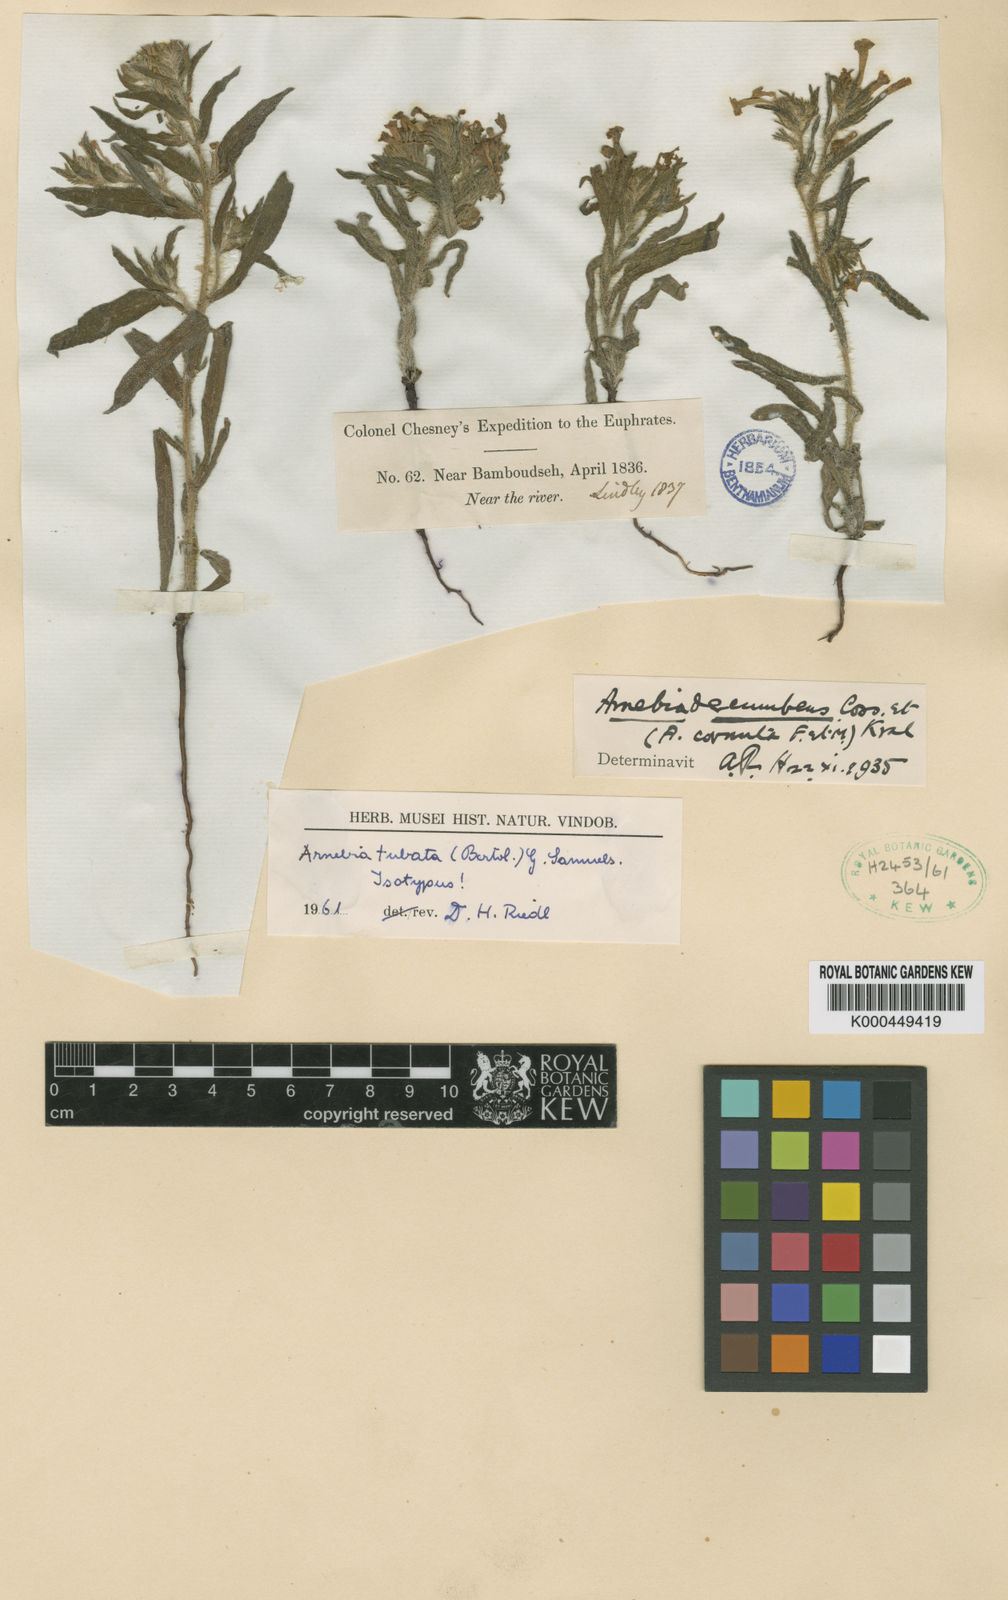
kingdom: Plantae
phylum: Tracheophyta
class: Magnoliopsida
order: Boraginales
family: Boraginaceae
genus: Arnebia
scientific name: Arnebia decumbens
